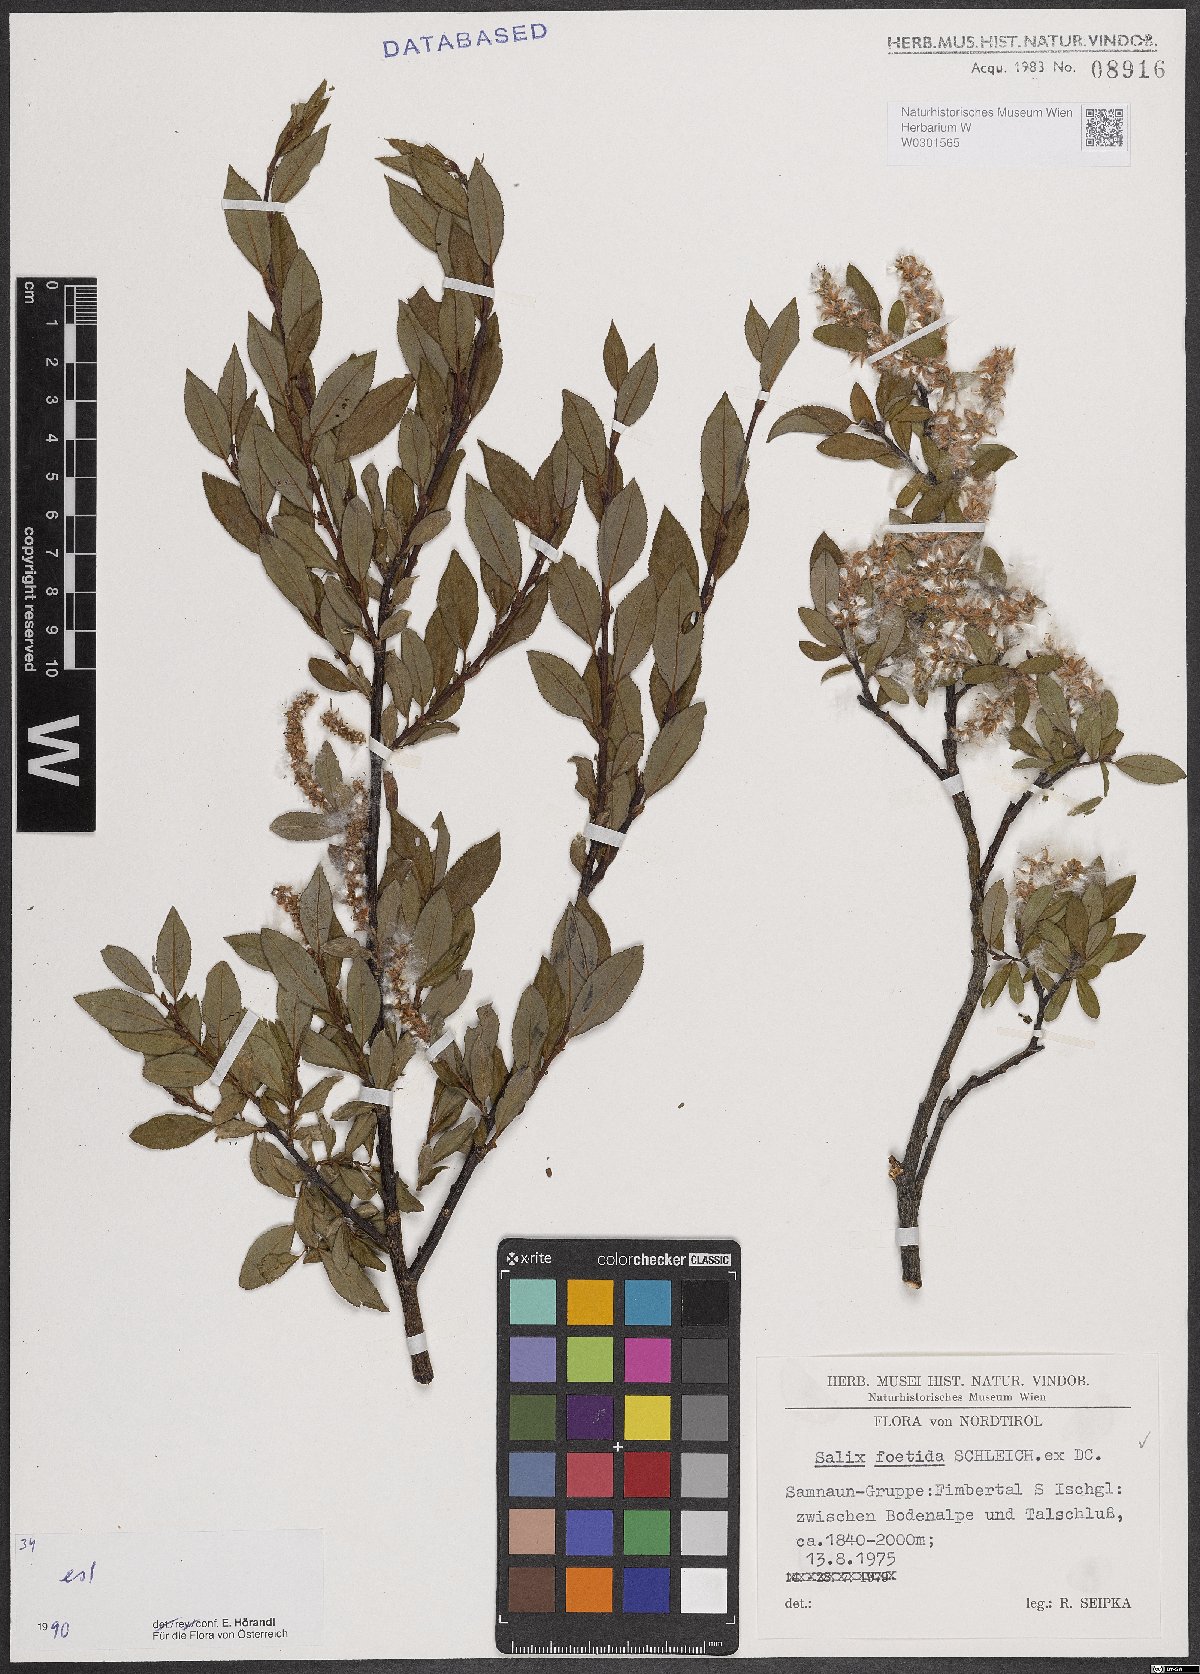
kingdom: Plantae
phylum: Tracheophyta
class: Magnoliopsida
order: Malpighiales
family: Salicaceae
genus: Salix
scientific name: Salix foetida
